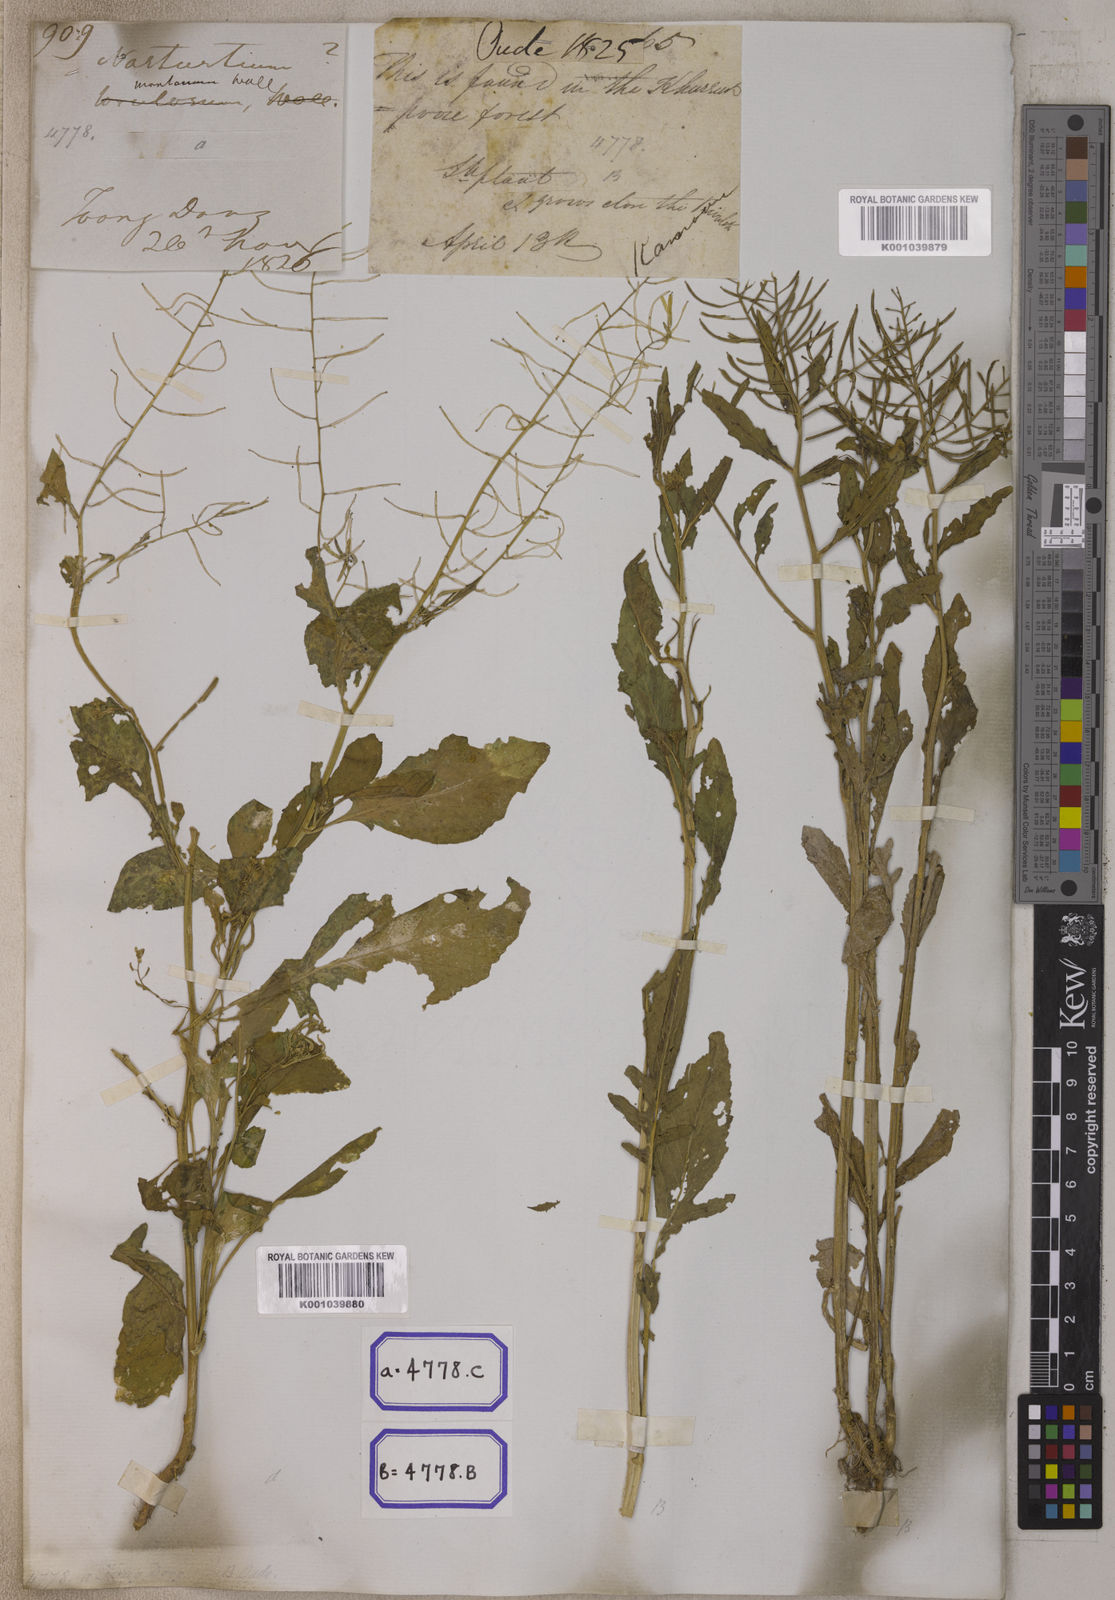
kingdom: Plantae
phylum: Tracheophyta
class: Magnoliopsida
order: Brassicales
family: Brassicaceae
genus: Nasturtium
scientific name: Nasturtium
